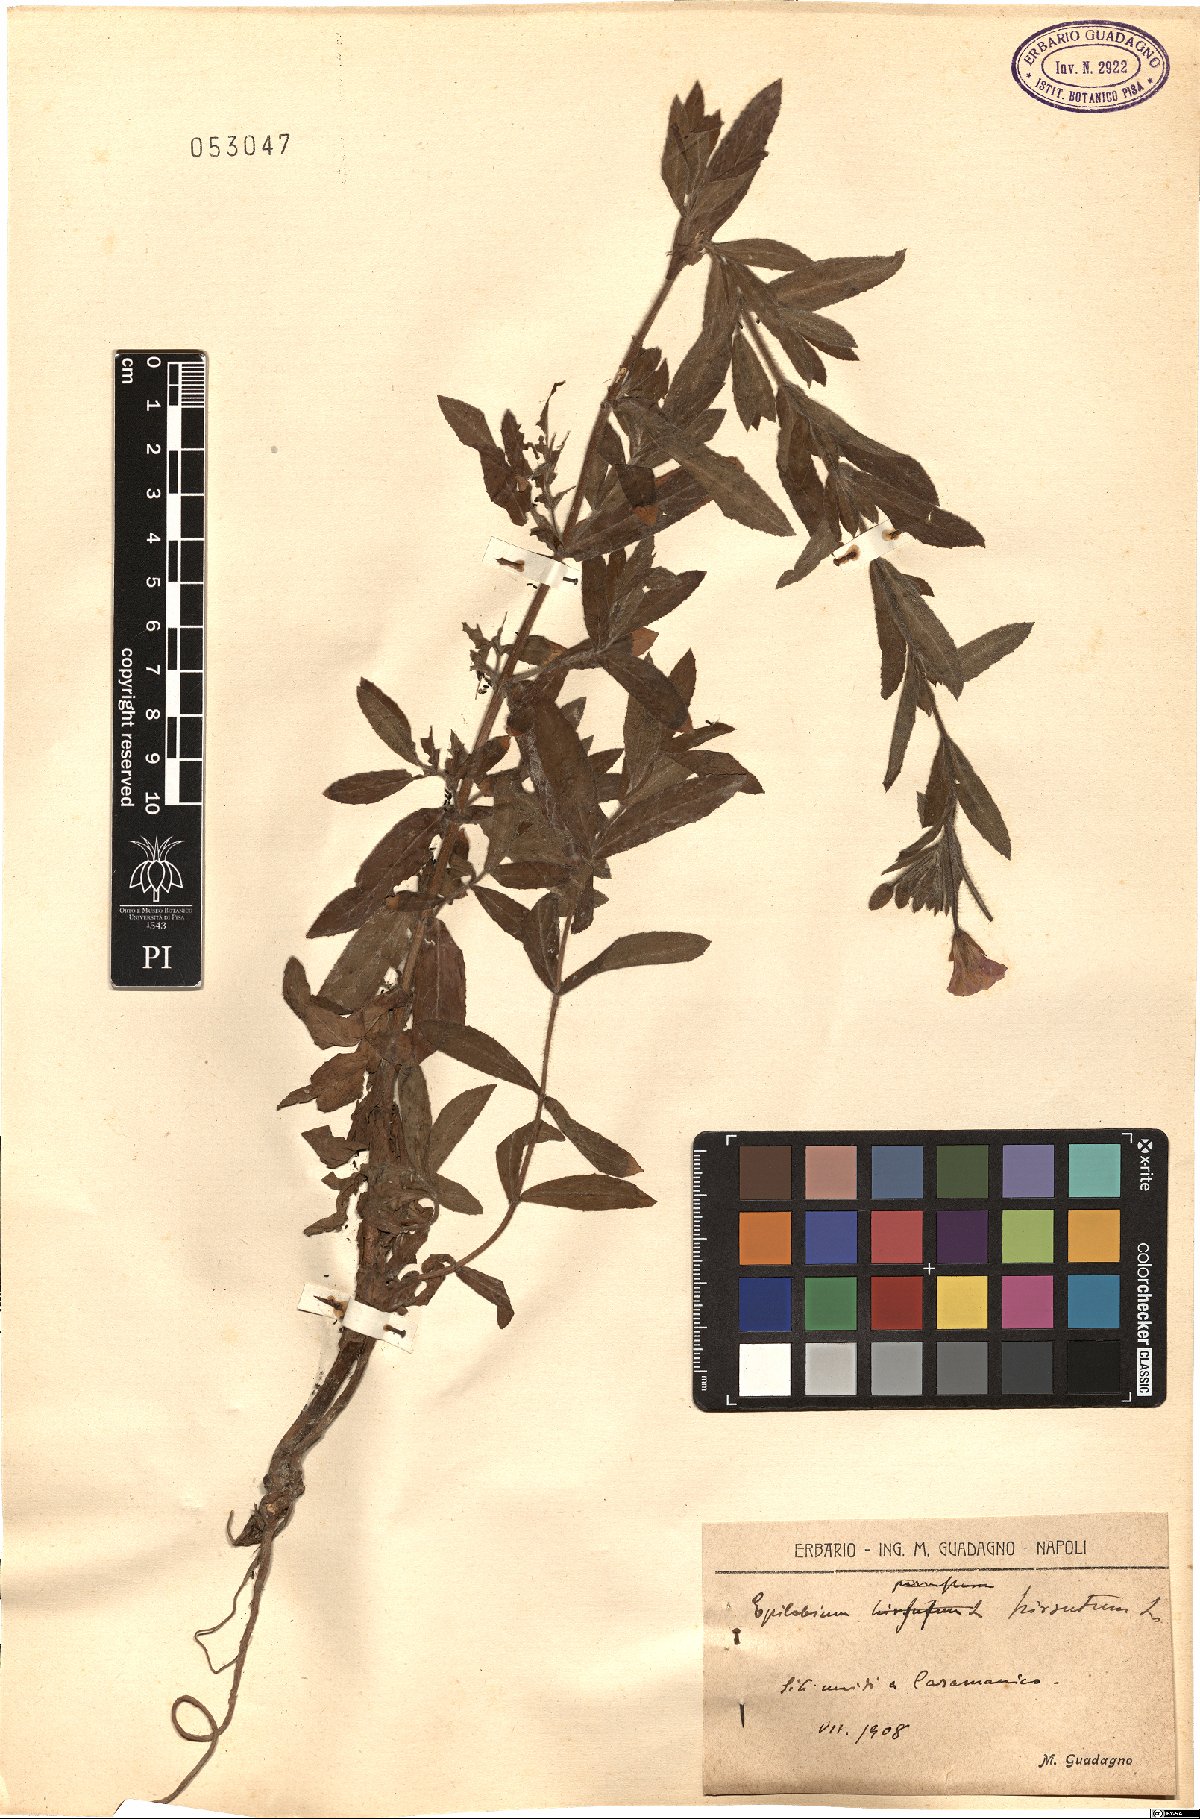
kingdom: Plantae
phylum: Tracheophyta
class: Magnoliopsida
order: Myrtales
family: Onagraceae
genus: Epilobium
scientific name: Epilobium hirsutum
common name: Great willowherb
